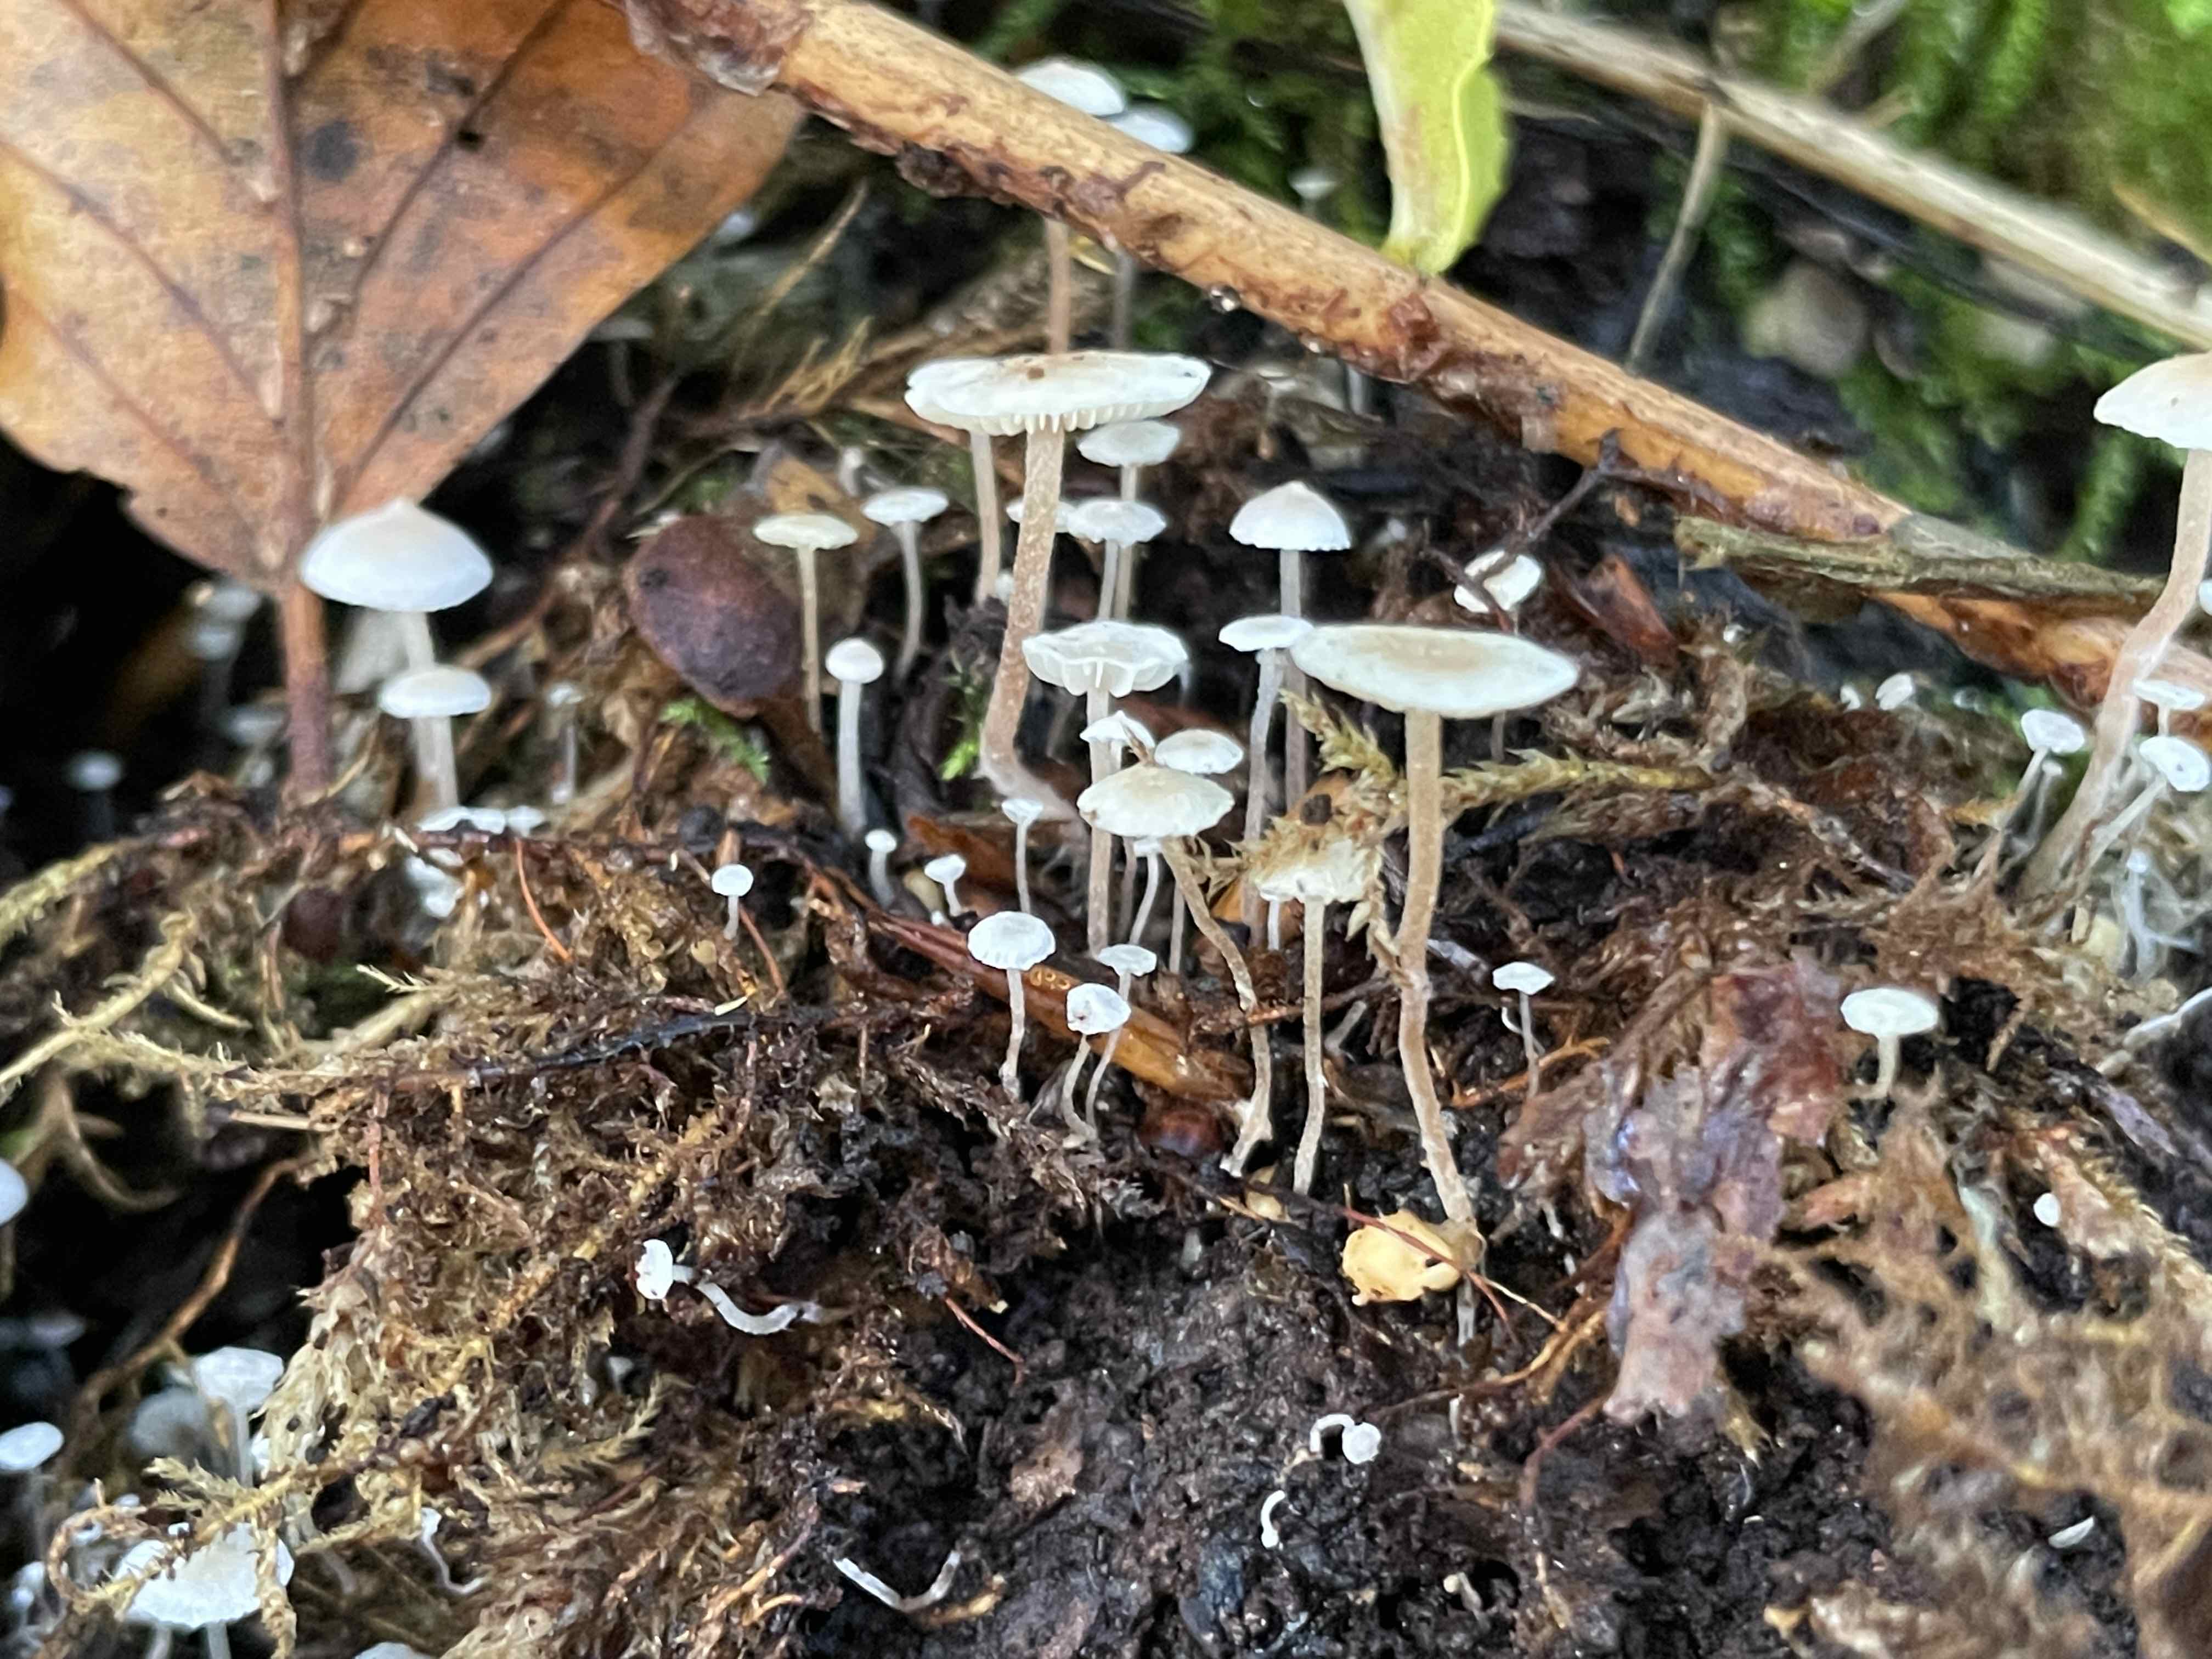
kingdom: Fungi
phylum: Basidiomycota
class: Agaricomycetes
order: Agaricales
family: Tricholomataceae
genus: Collybia
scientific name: Collybia cookei
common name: gulknoldet lighat
